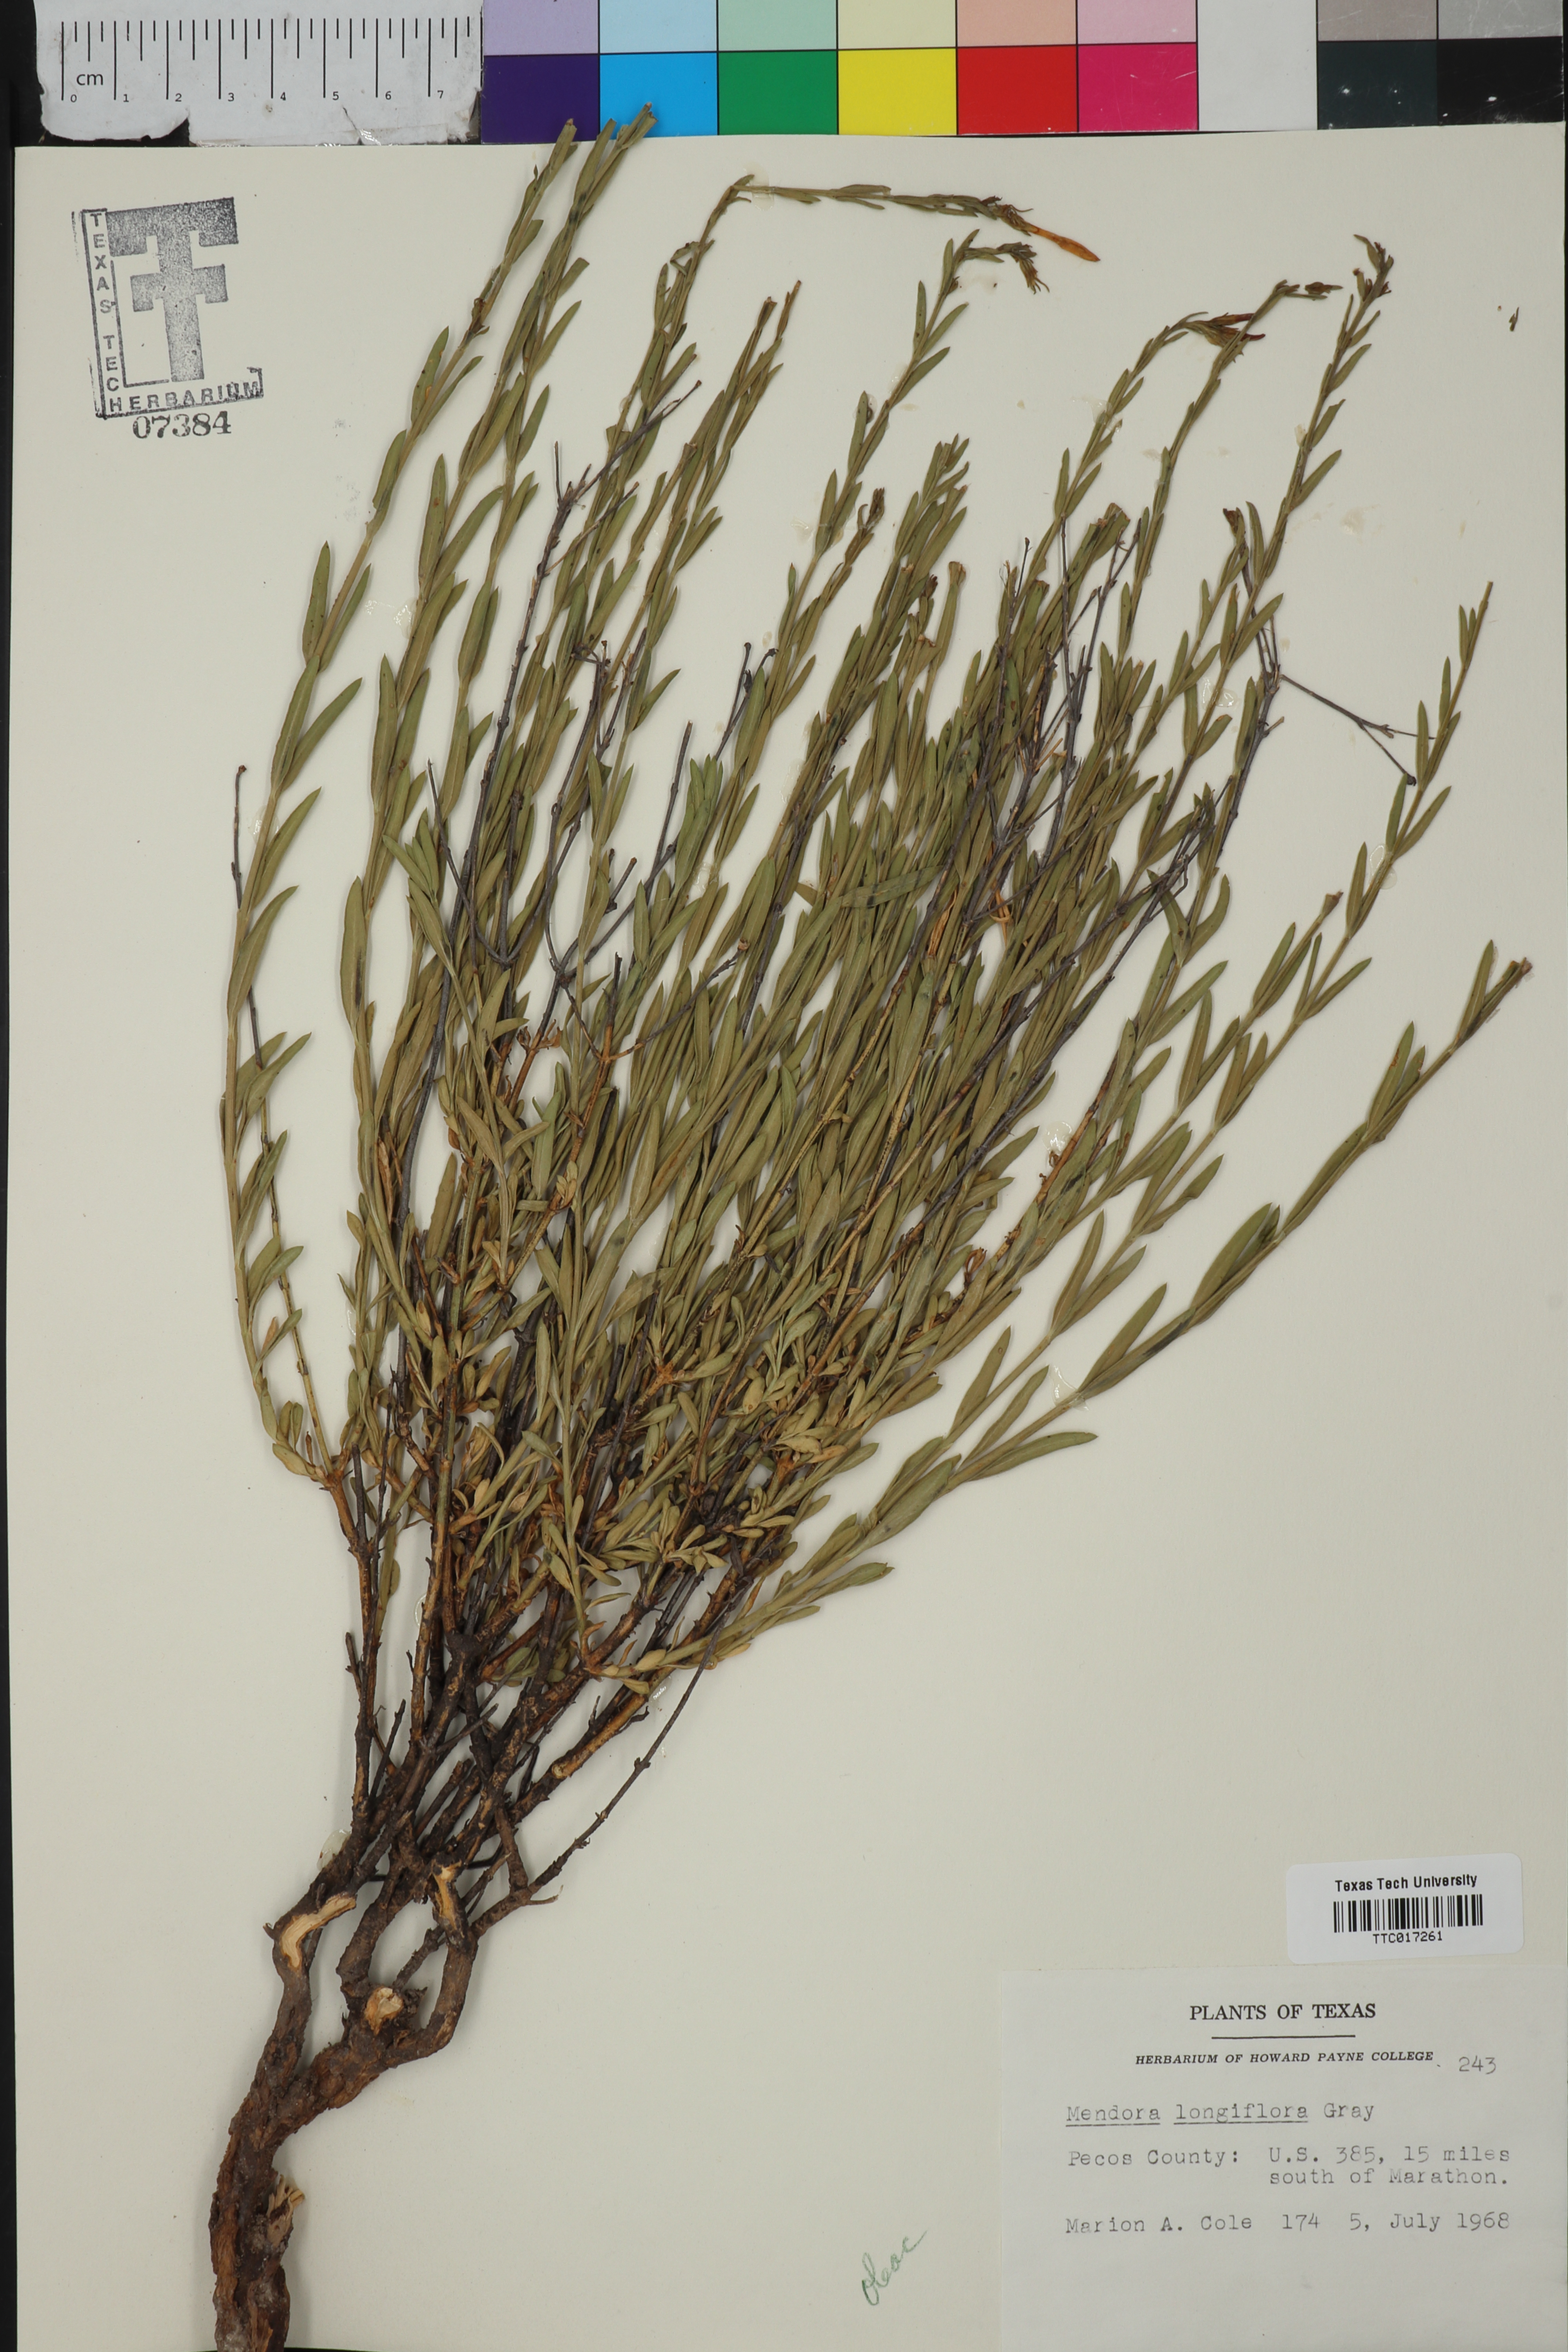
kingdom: Plantae
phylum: Tracheophyta
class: Magnoliopsida
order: Lamiales
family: Oleaceae
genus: Menodora
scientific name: Menodora longiflora
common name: Showy menodora
